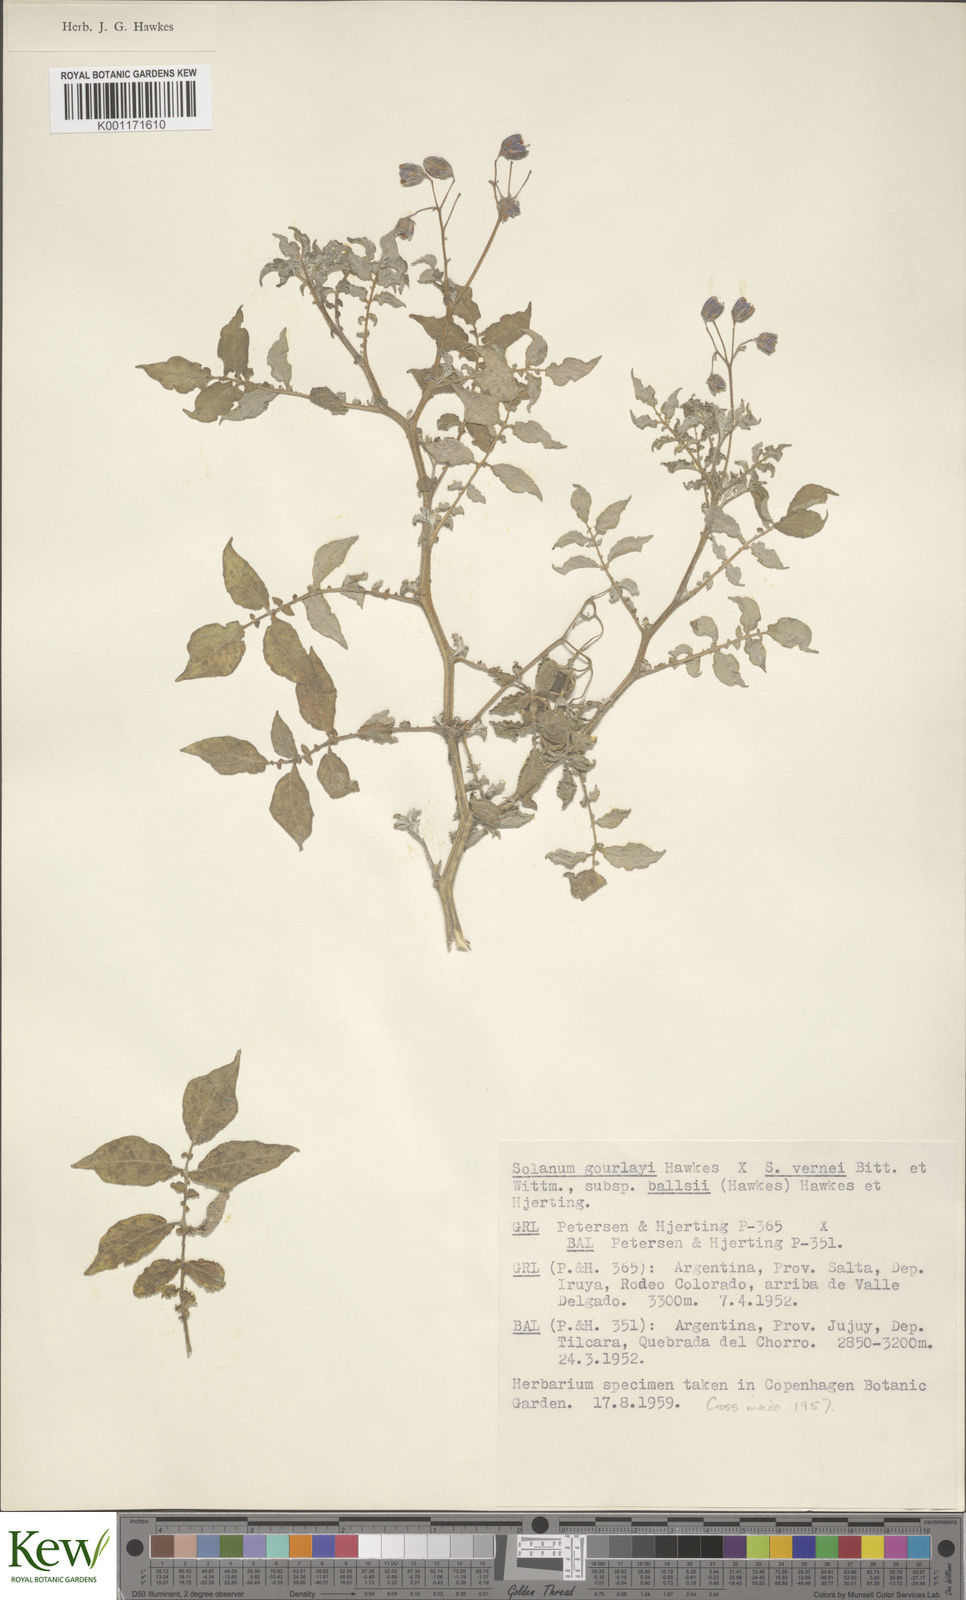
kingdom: Plantae
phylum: Tracheophyta
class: Magnoliopsida
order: Solanales
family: Solanaceae
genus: Solanum
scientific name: Solanum vernei
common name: Purple potato
